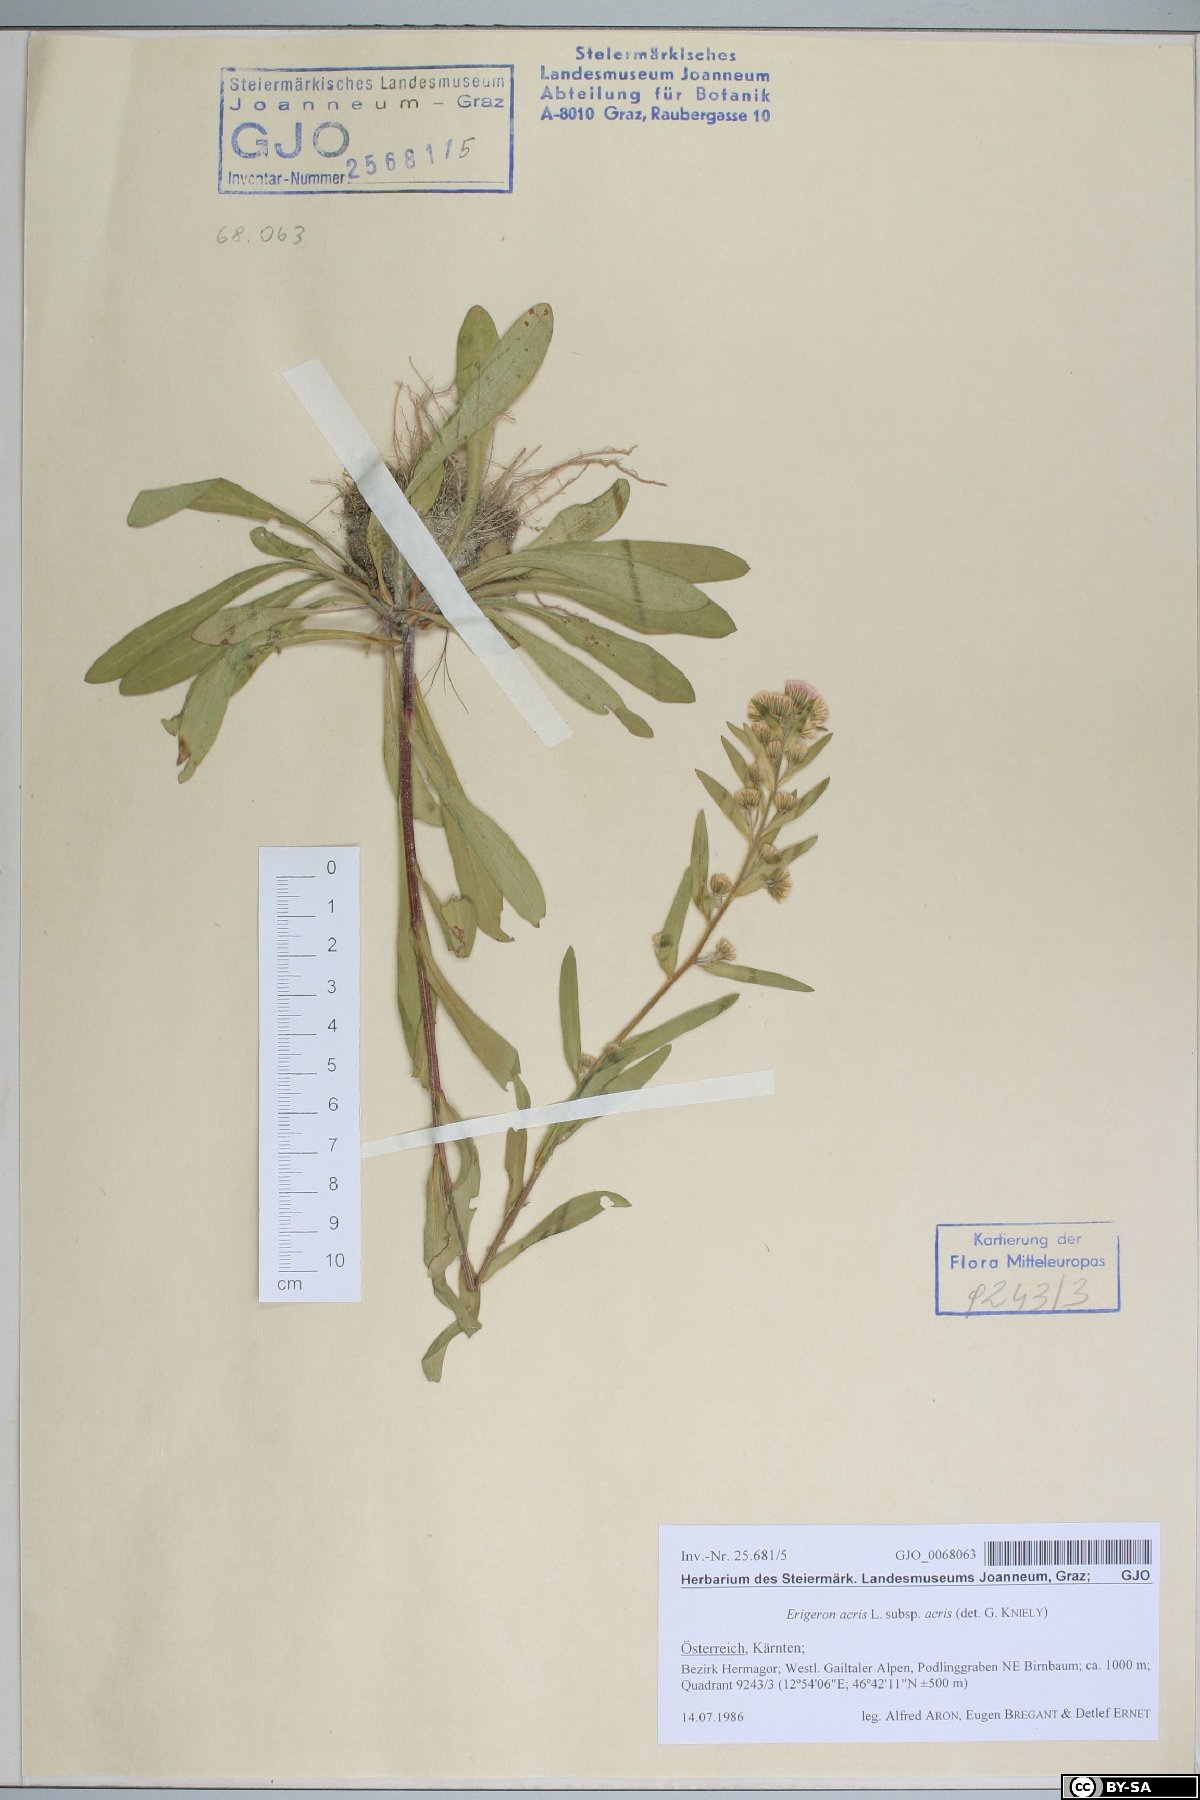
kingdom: Plantae
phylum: Tracheophyta
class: Magnoliopsida
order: Asterales
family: Asteraceae
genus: Erigeron
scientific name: Erigeron acris
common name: Blue fleabane
